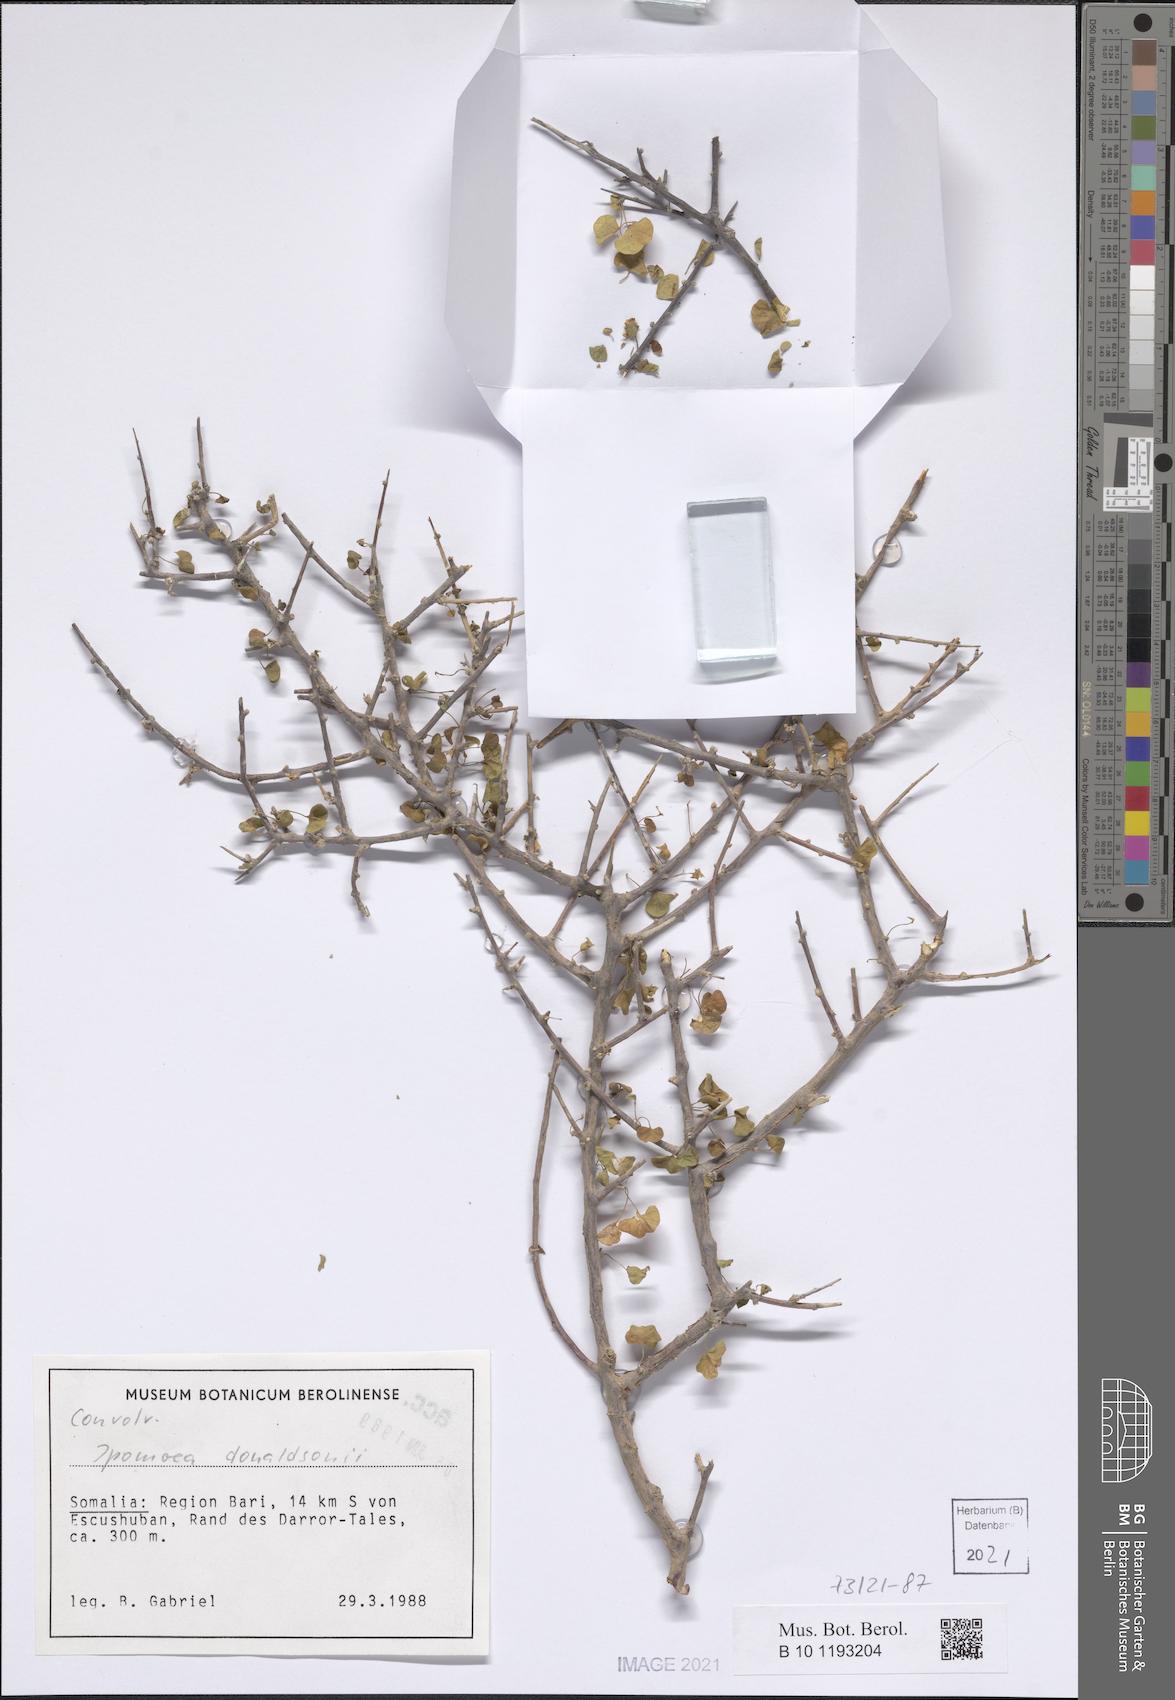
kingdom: Plantae
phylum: Tracheophyta
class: Magnoliopsida
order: Solanales
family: Convolvulaceae
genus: Ipomoea
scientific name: Ipomoea donaldsonii
